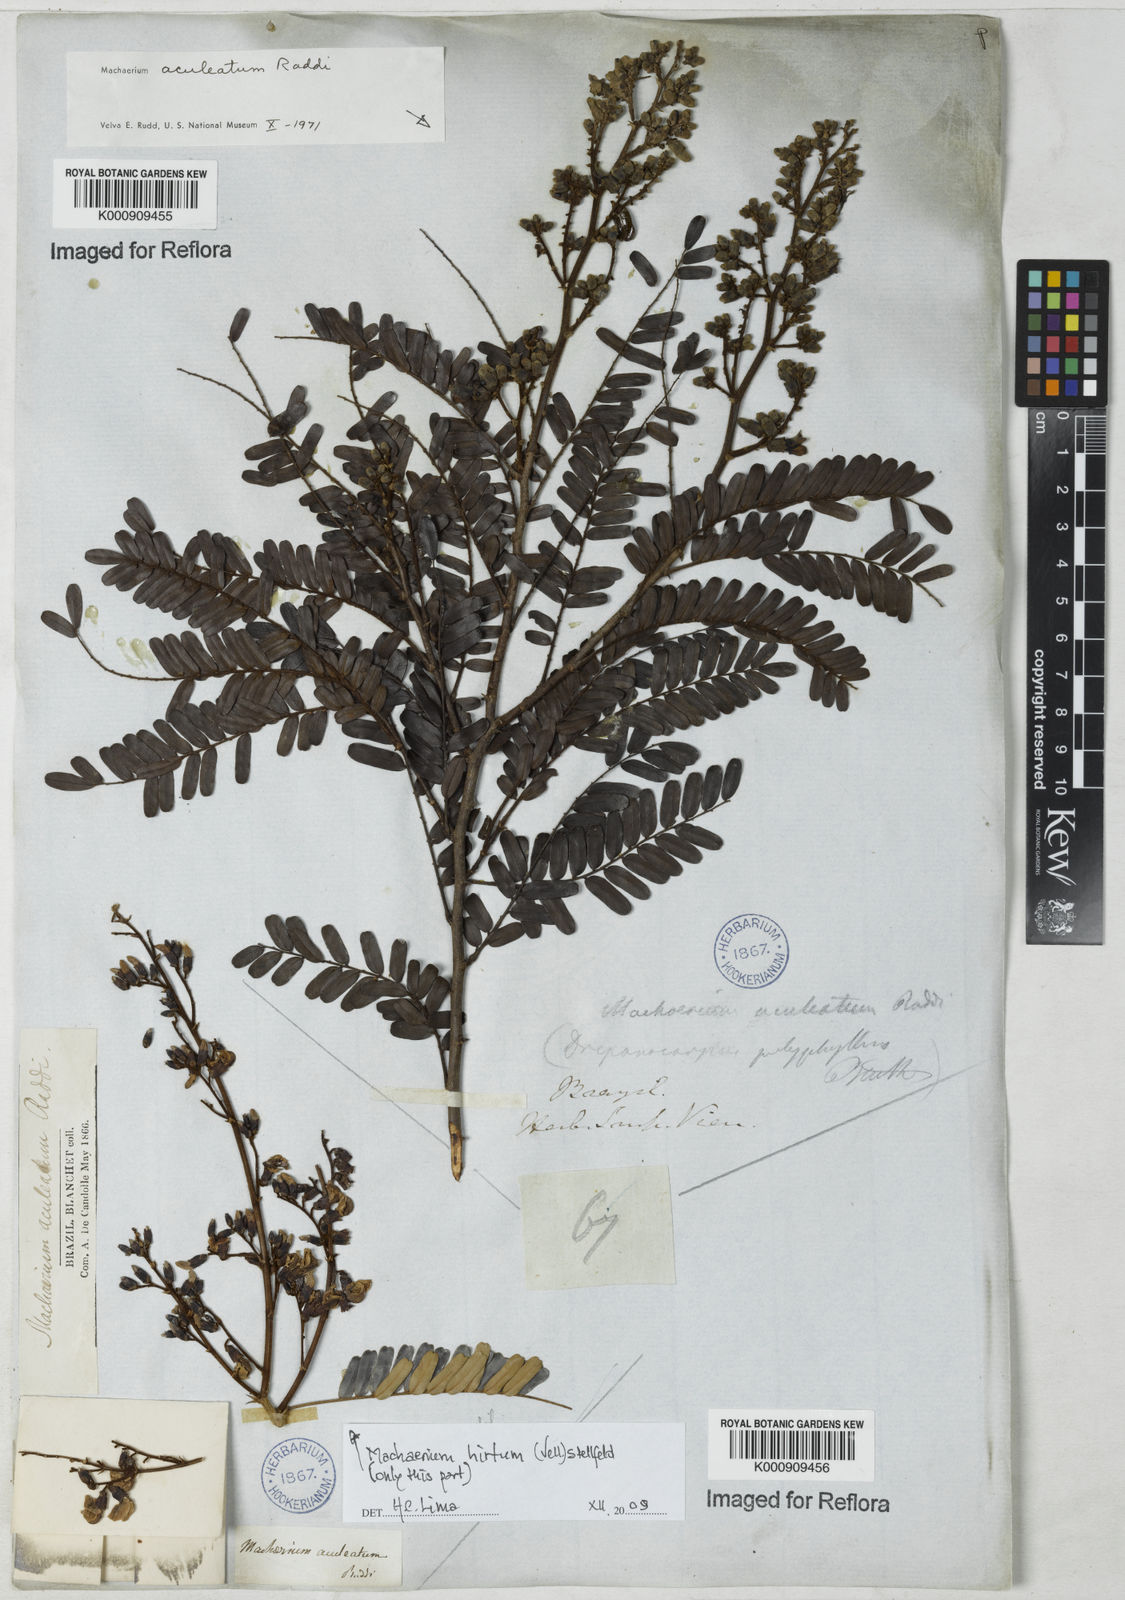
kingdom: Plantae
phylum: Tracheophyta
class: Magnoliopsida
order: Fabales
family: Fabaceae
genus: Machaerium
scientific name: Machaerium aculeatum
